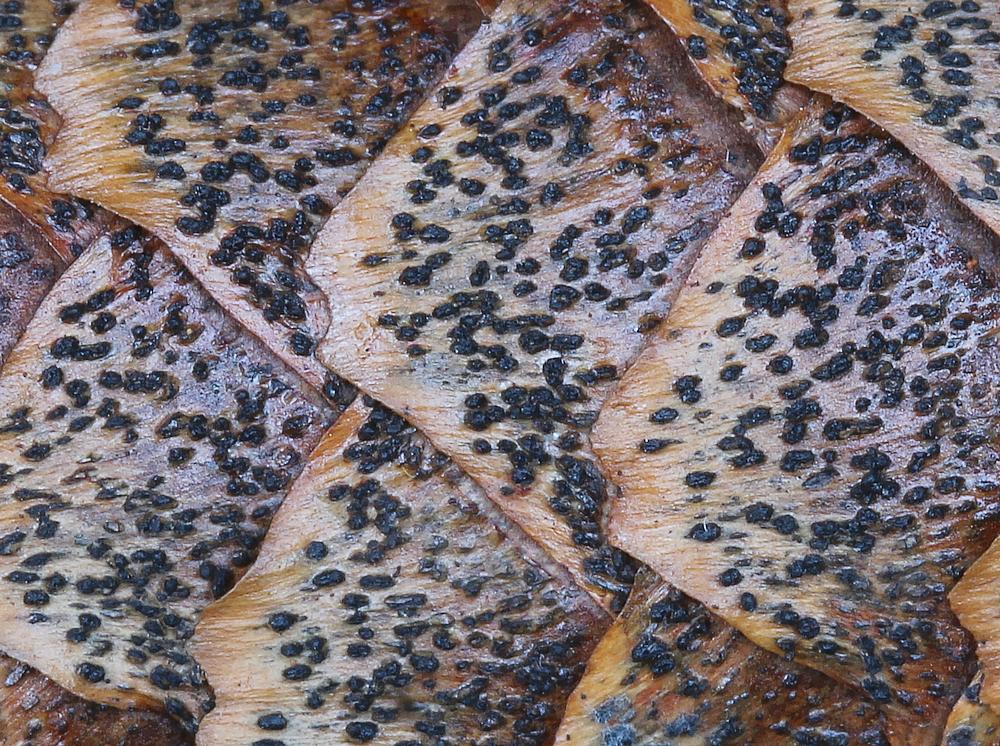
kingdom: Fungi
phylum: Ascomycota
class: Sordariomycetes
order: Diaporthales
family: Gnomoniaceae
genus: Sirococcus
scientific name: Sirococcus conigenus
